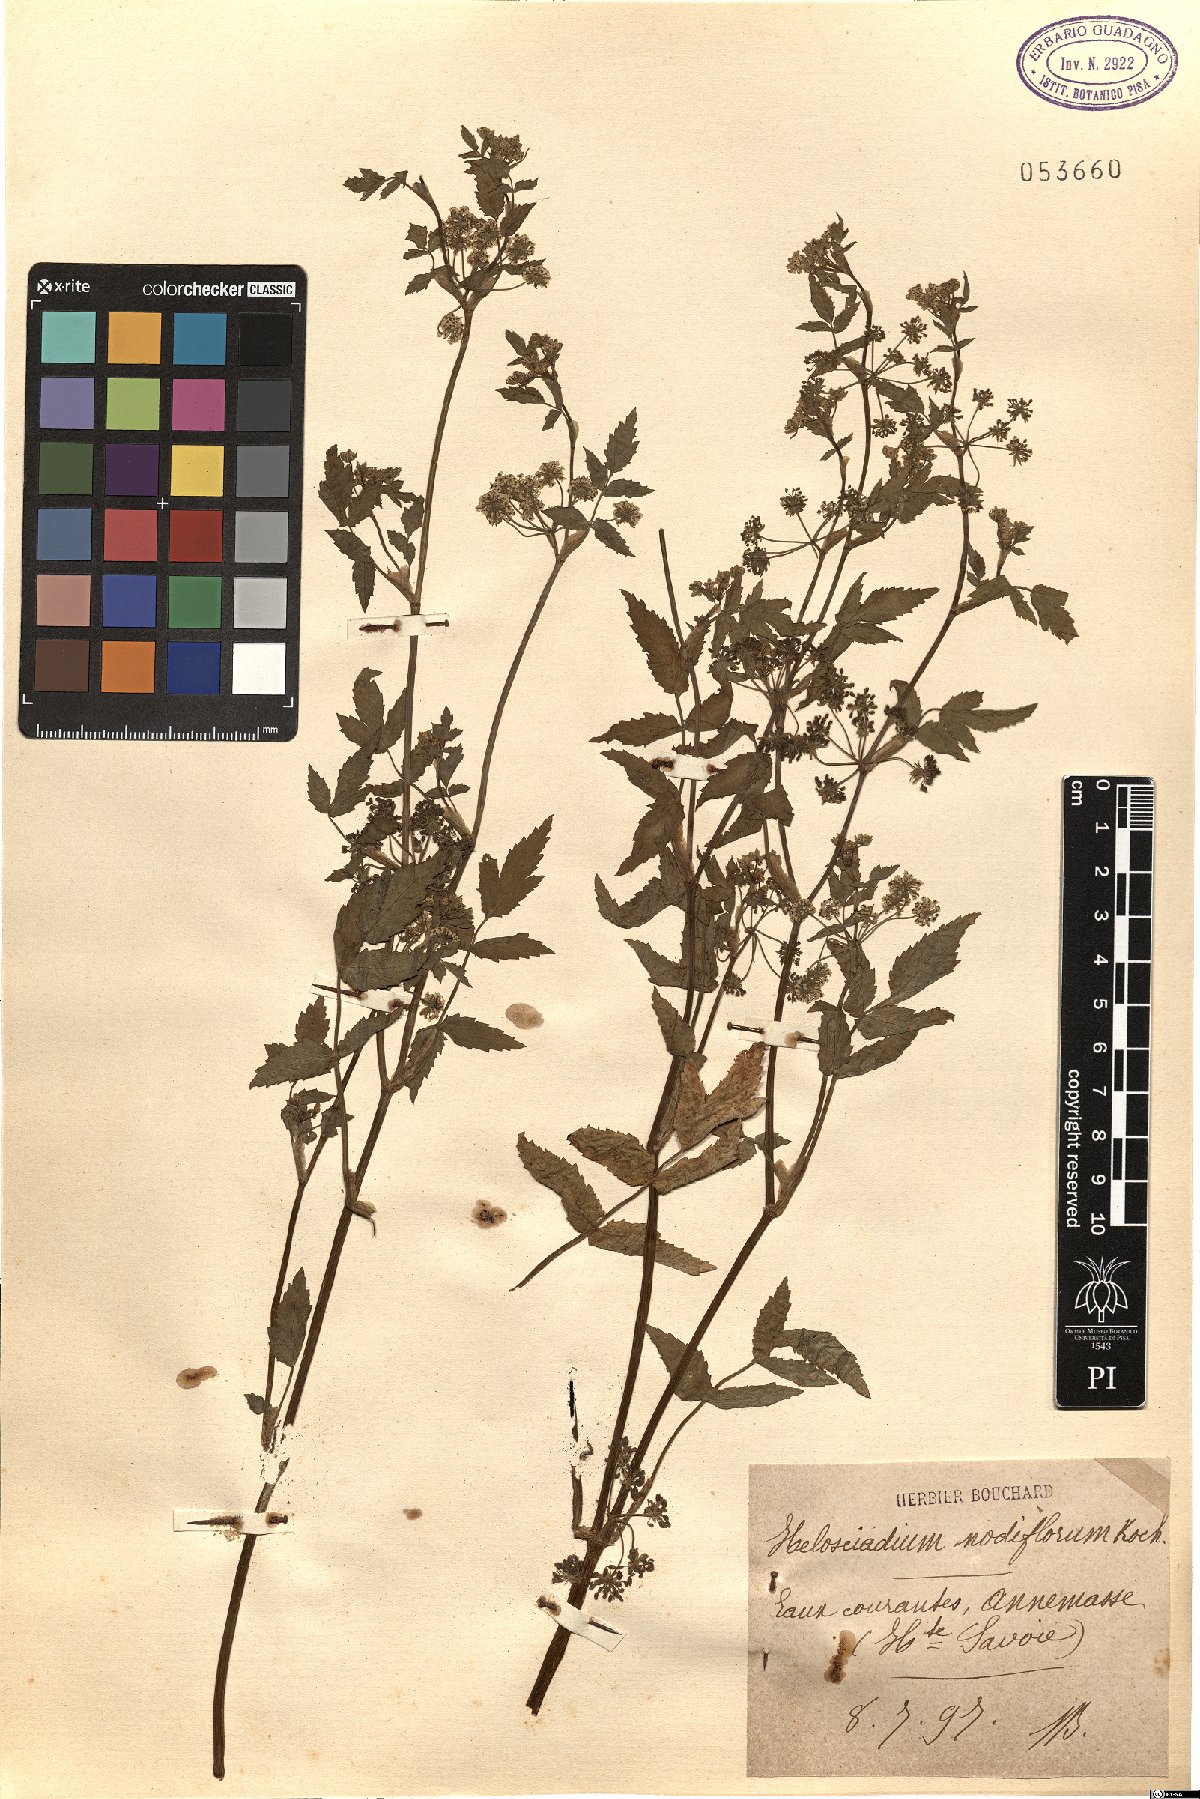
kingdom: Plantae
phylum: Tracheophyta
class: Magnoliopsida
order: Apiales
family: Apiaceae
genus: Helosciadium
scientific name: Helosciadium nodiflorum
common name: Fool's-watercress
